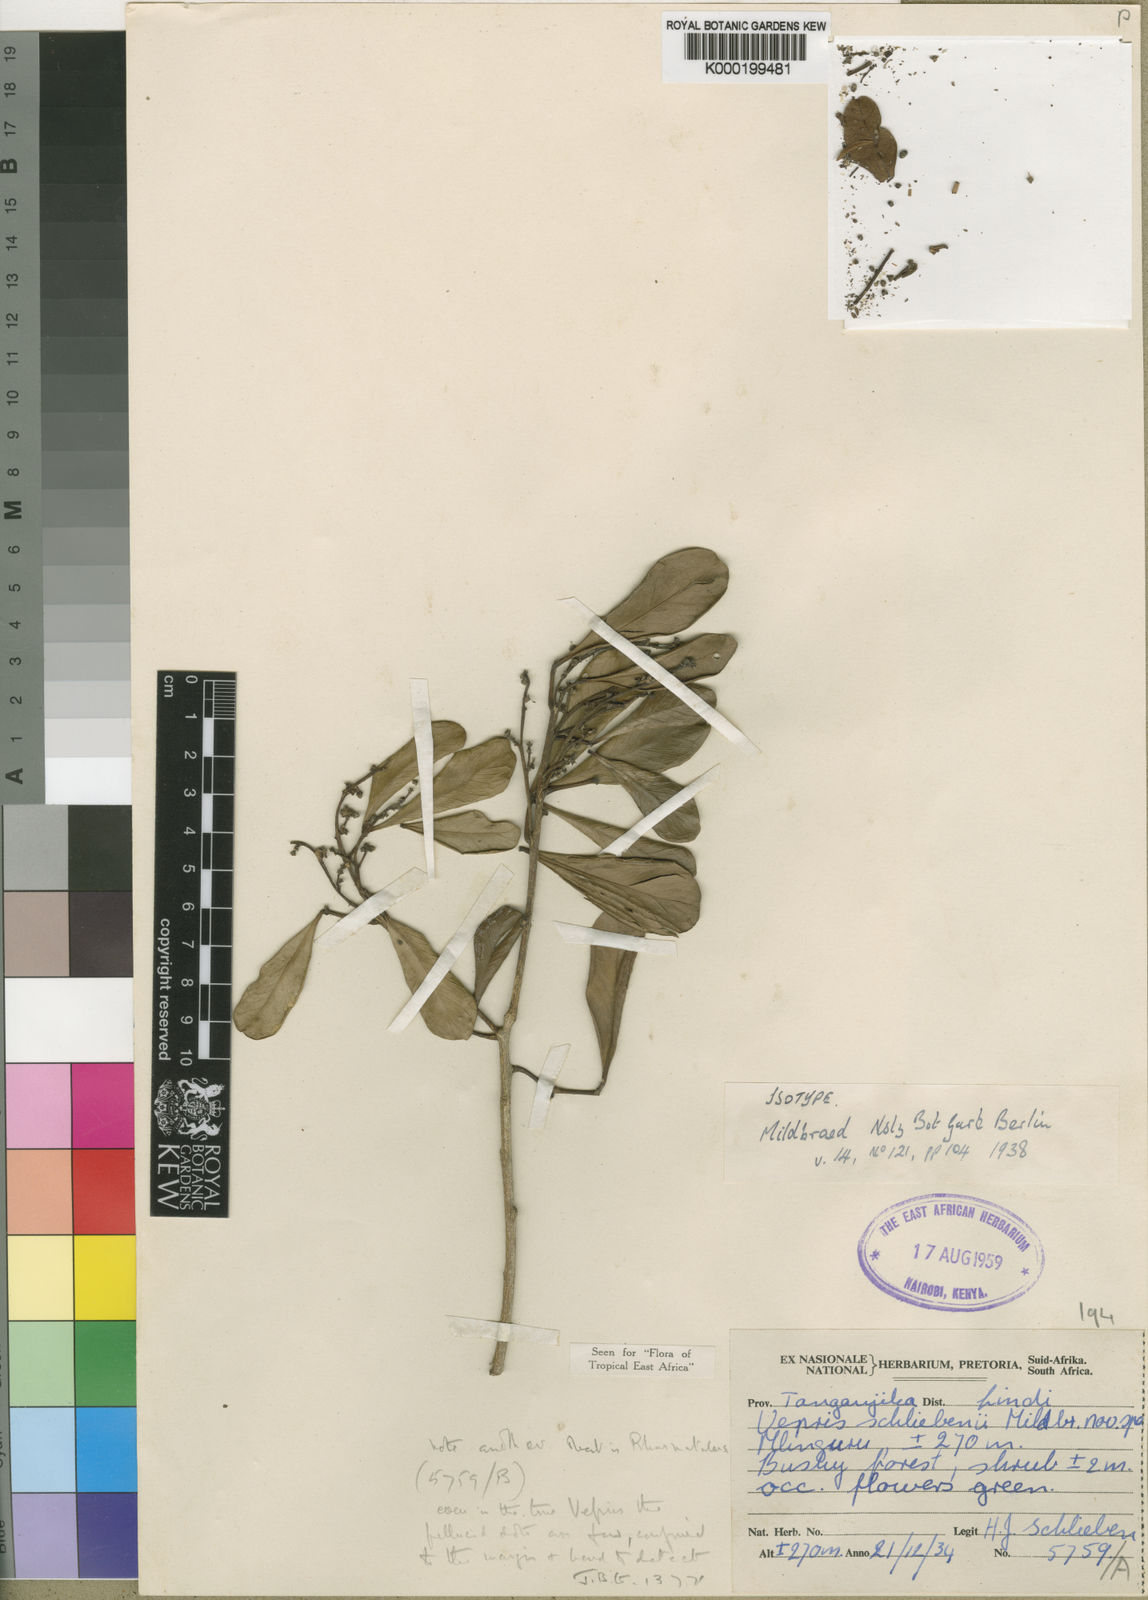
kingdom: Plantae
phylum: Tracheophyta
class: Magnoliopsida
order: Sapindales
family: Rutaceae
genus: Vepris
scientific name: Vepris schliebenii
